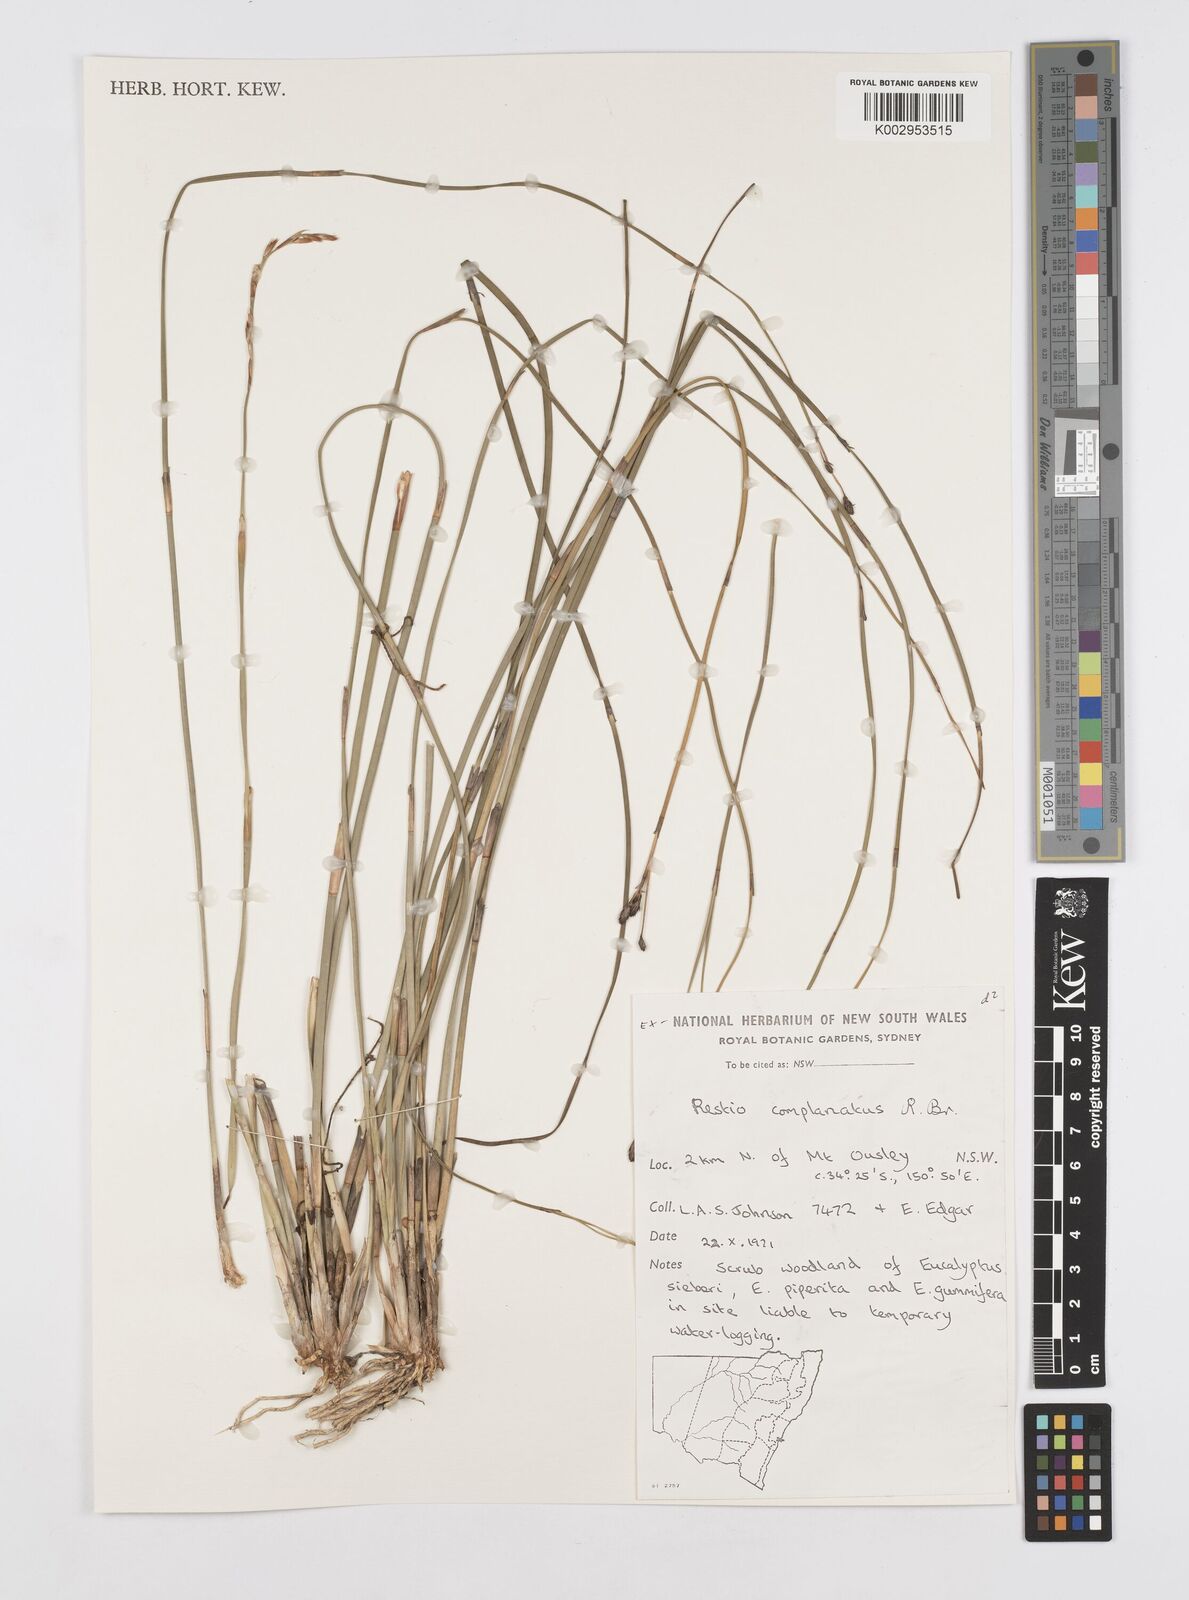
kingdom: Plantae
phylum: Tracheophyta
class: Liliopsida
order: Poales
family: Restionaceae
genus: Eurychorda
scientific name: Eurychorda complanata
